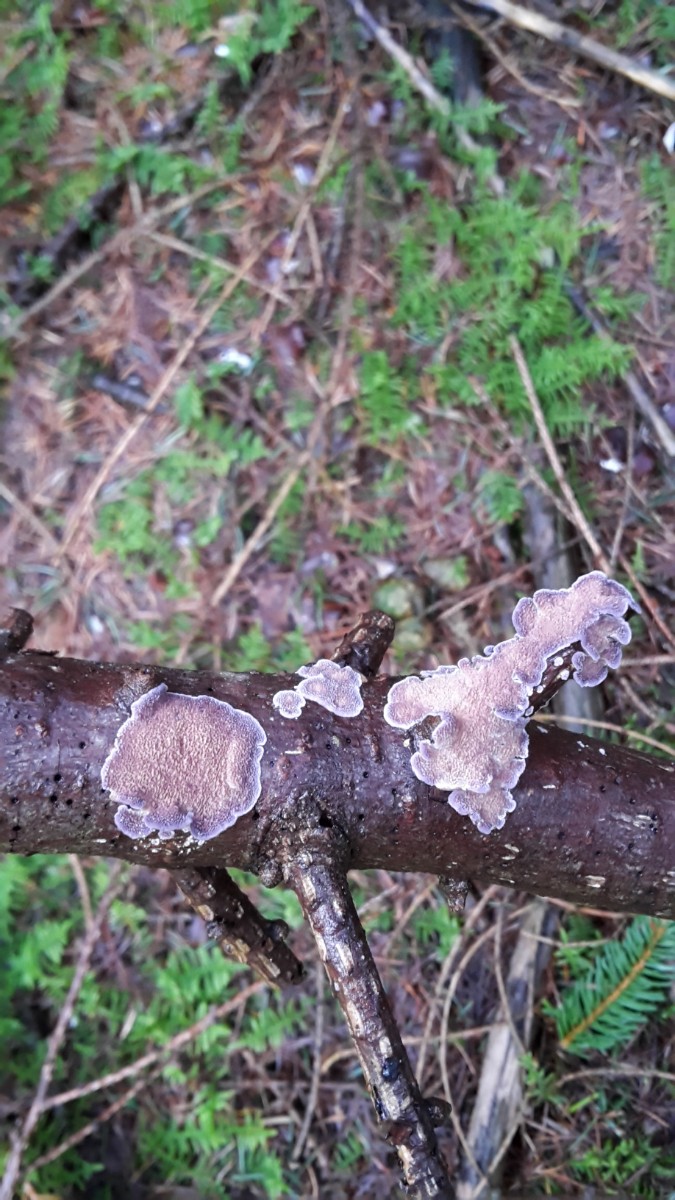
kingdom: Fungi
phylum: Basidiomycota
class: Agaricomycetes
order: Hymenochaetales
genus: Trichaptum
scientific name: Trichaptum abietinum
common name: almindelig violporesvamp
